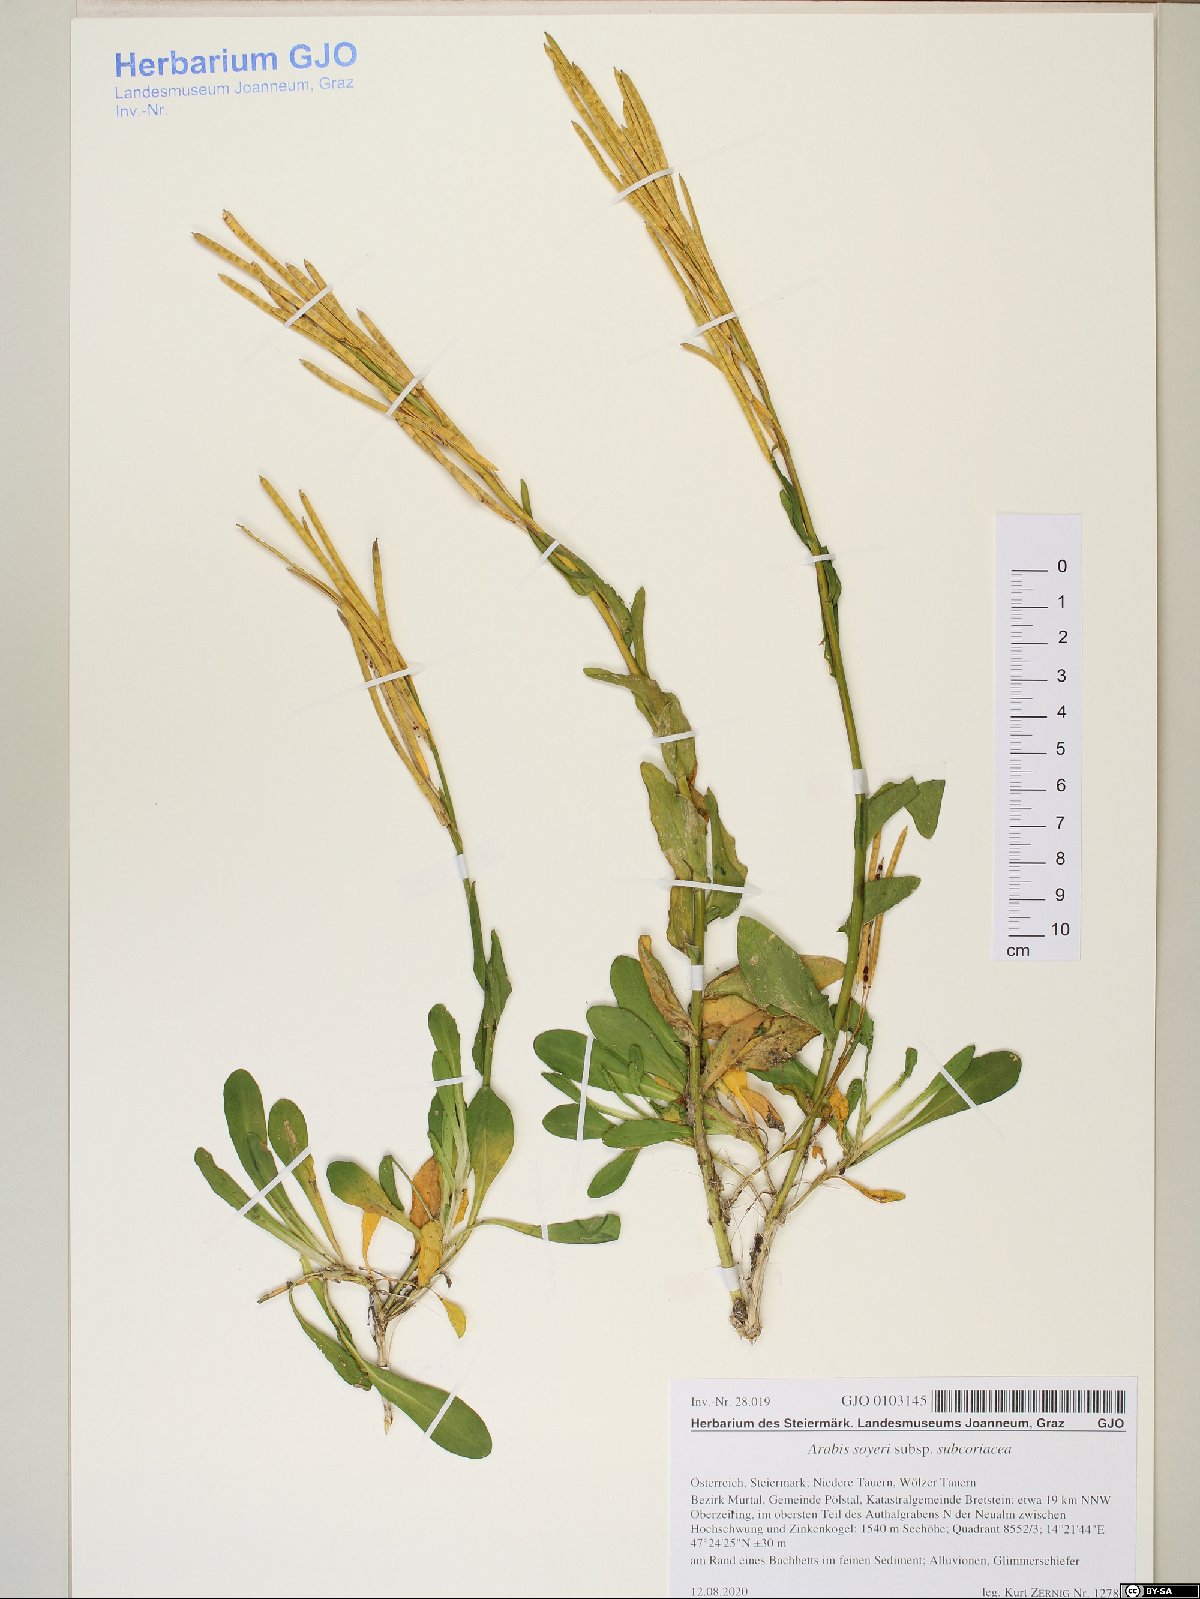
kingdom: Plantae
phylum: Tracheophyta
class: Magnoliopsida
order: Brassicales
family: Brassicaceae
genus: Arabis
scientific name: Arabis soyeri
